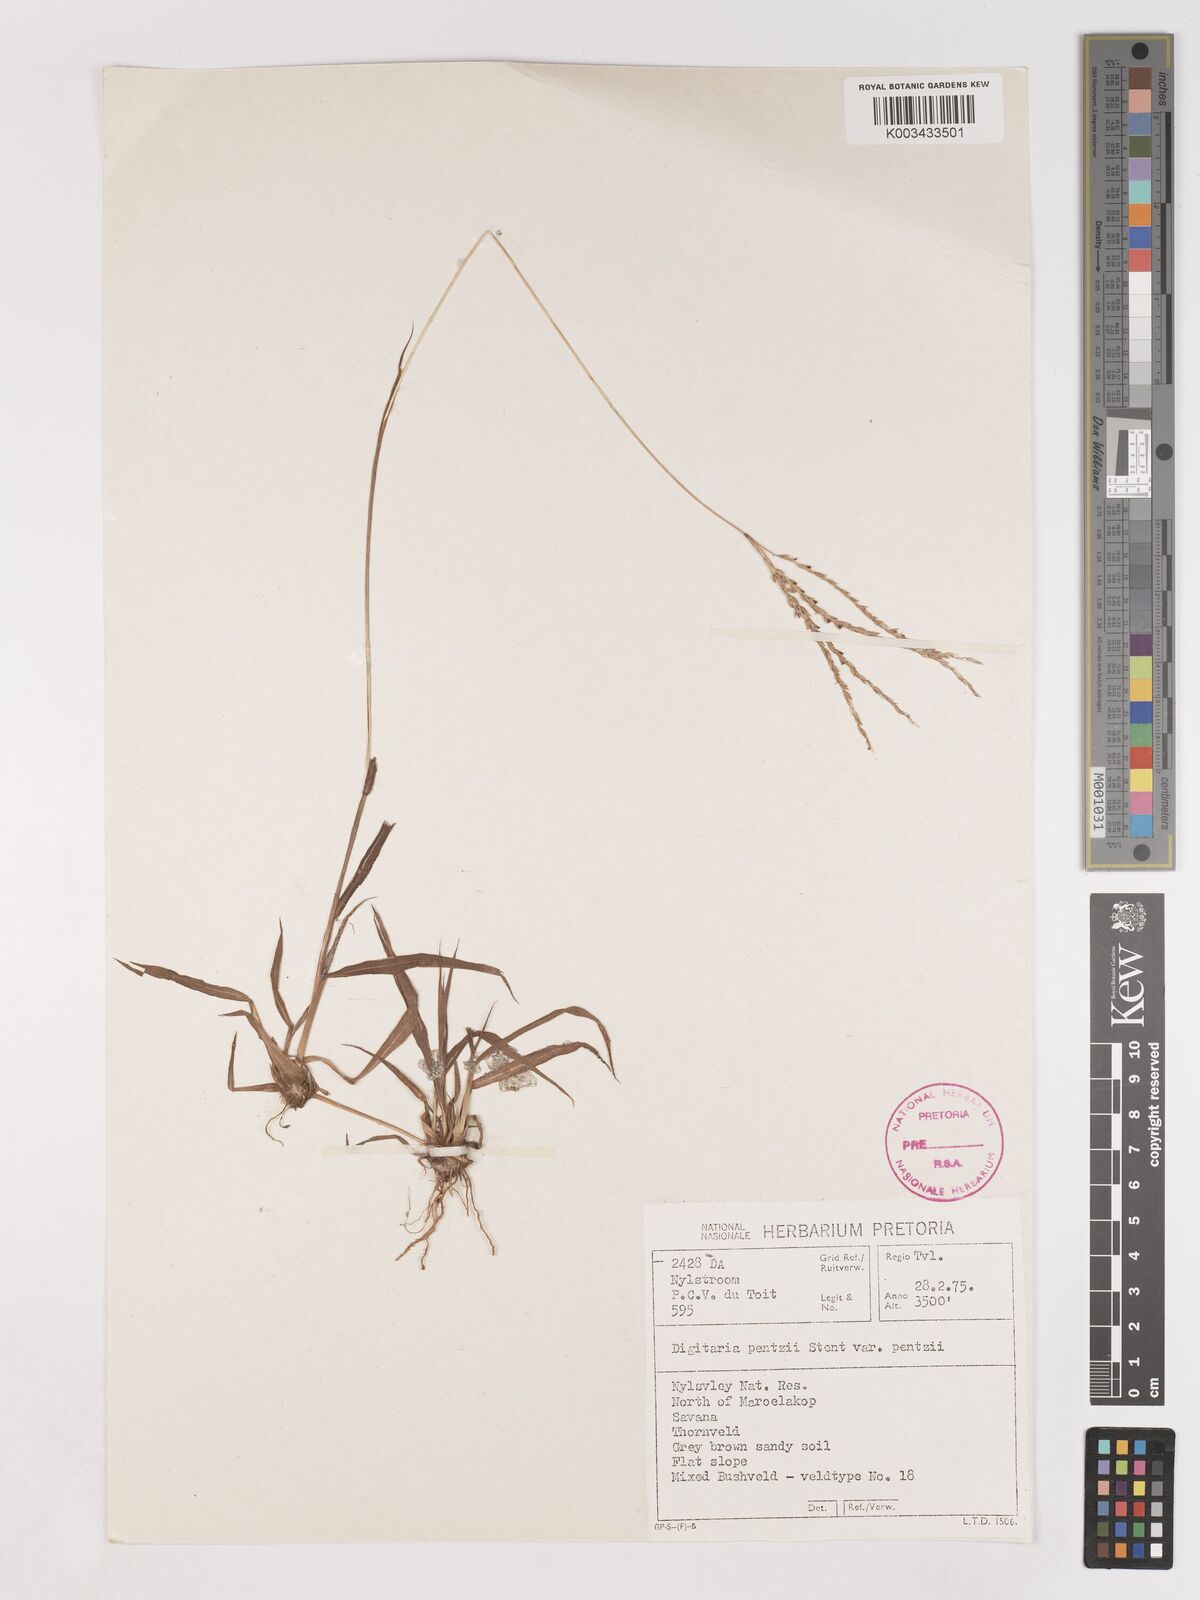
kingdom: Plantae
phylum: Tracheophyta
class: Liliopsida
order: Poales
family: Poaceae
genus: Digitaria
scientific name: Digitaria eriantha
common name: Digitgrass
